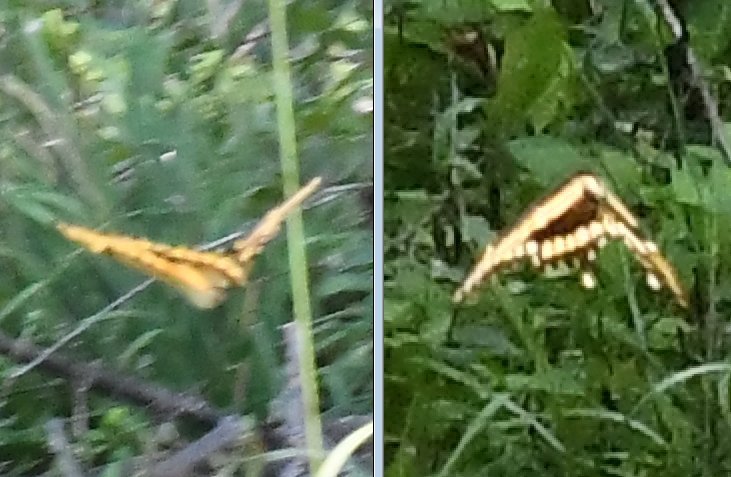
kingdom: Animalia
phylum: Arthropoda
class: Insecta
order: Lepidoptera
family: Papilionidae
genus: Papilio
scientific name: Papilio cresphontes
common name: Eastern Giant Swallowtail
